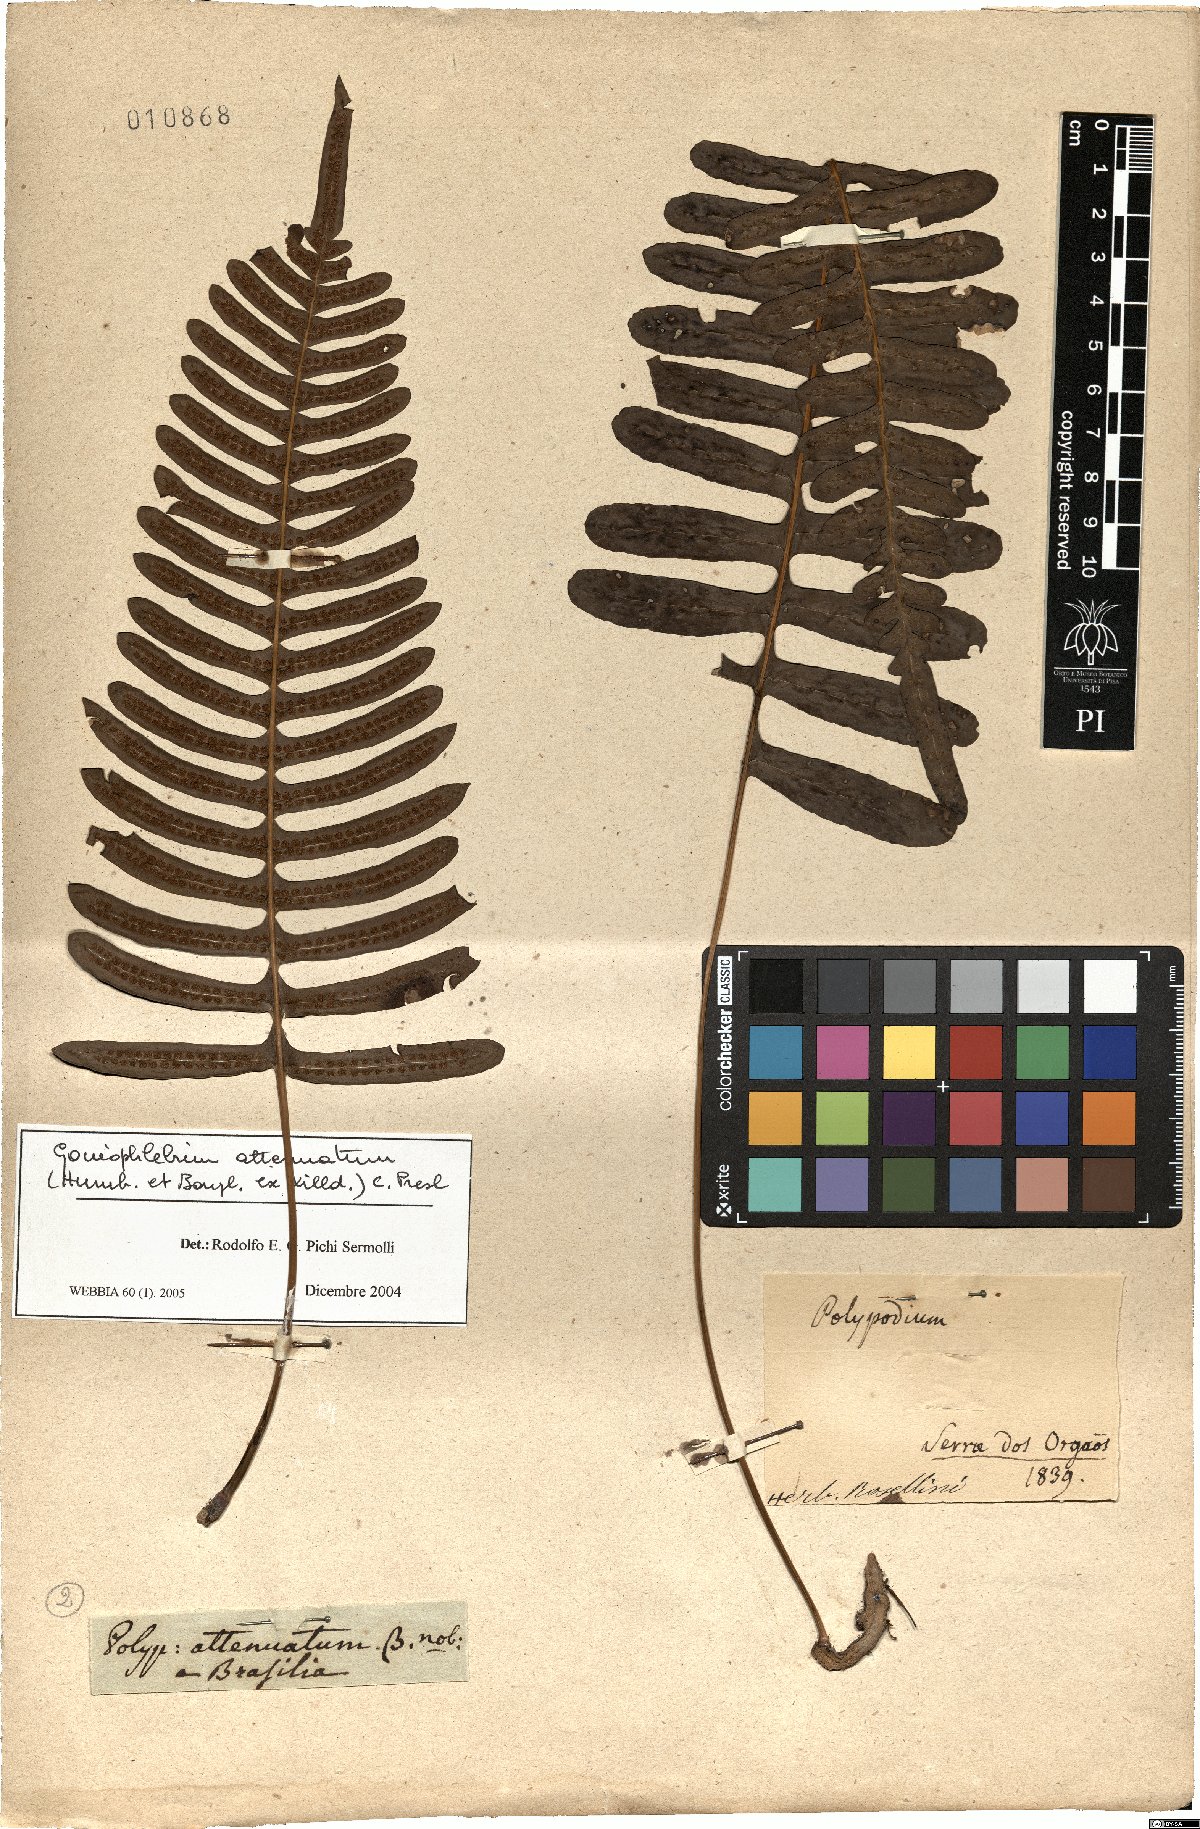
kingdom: Plantae
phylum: Tracheophyta
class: Polypodiopsida
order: Polypodiales
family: Polypodiaceae
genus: Serpocaulon
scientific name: Serpocaulon attenuatum
